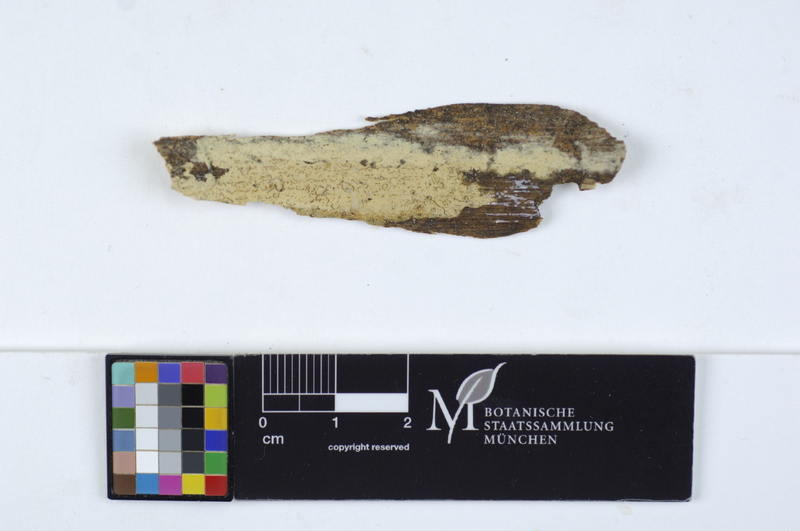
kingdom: Fungi
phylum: Basidiomycota
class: Agaricomycetes
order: Russulales
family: Stereaceae
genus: Gloeocystidiellum
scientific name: Gloeocystidiellum porosum
